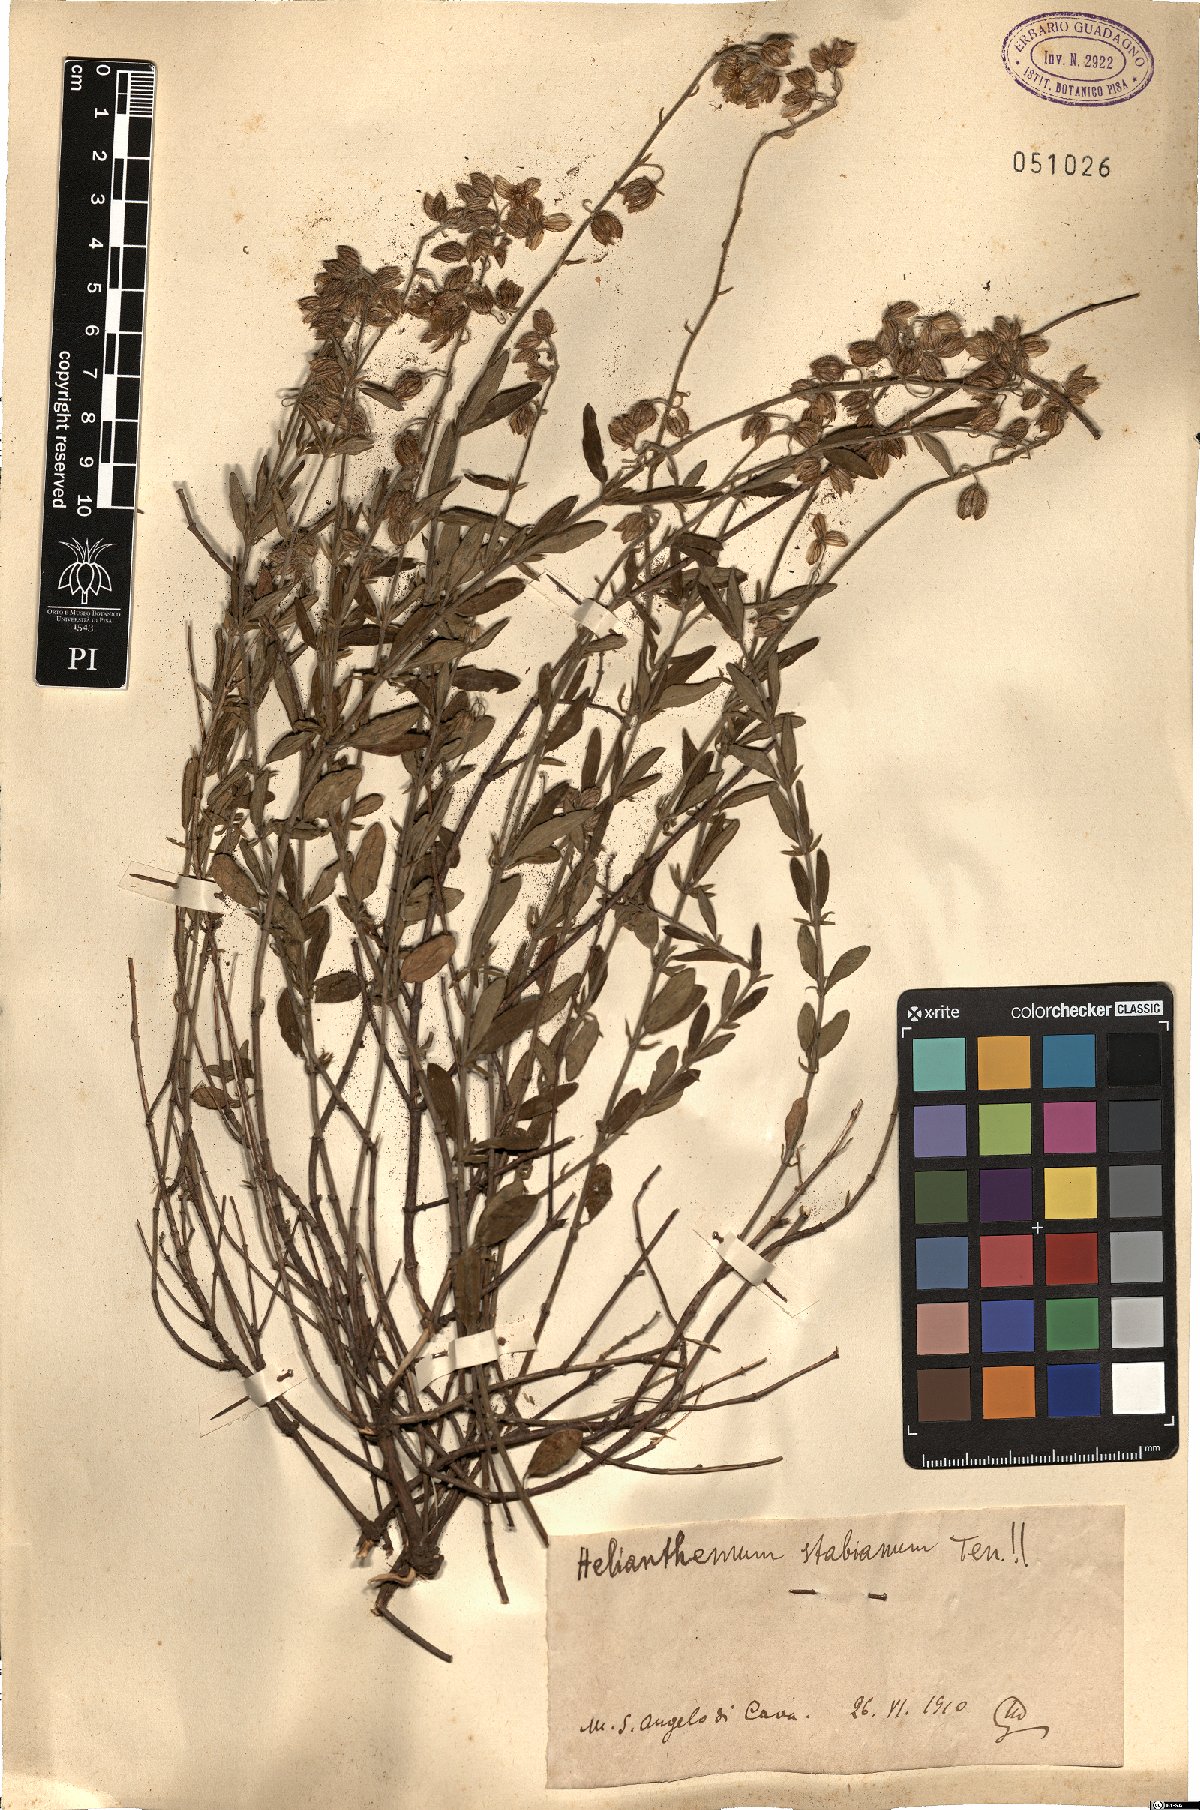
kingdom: Plantae
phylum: Tracheophyta
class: Magnoliopsida
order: Malvales
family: Cistaceae
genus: Helianthemum
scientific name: Helianthemum croceum
